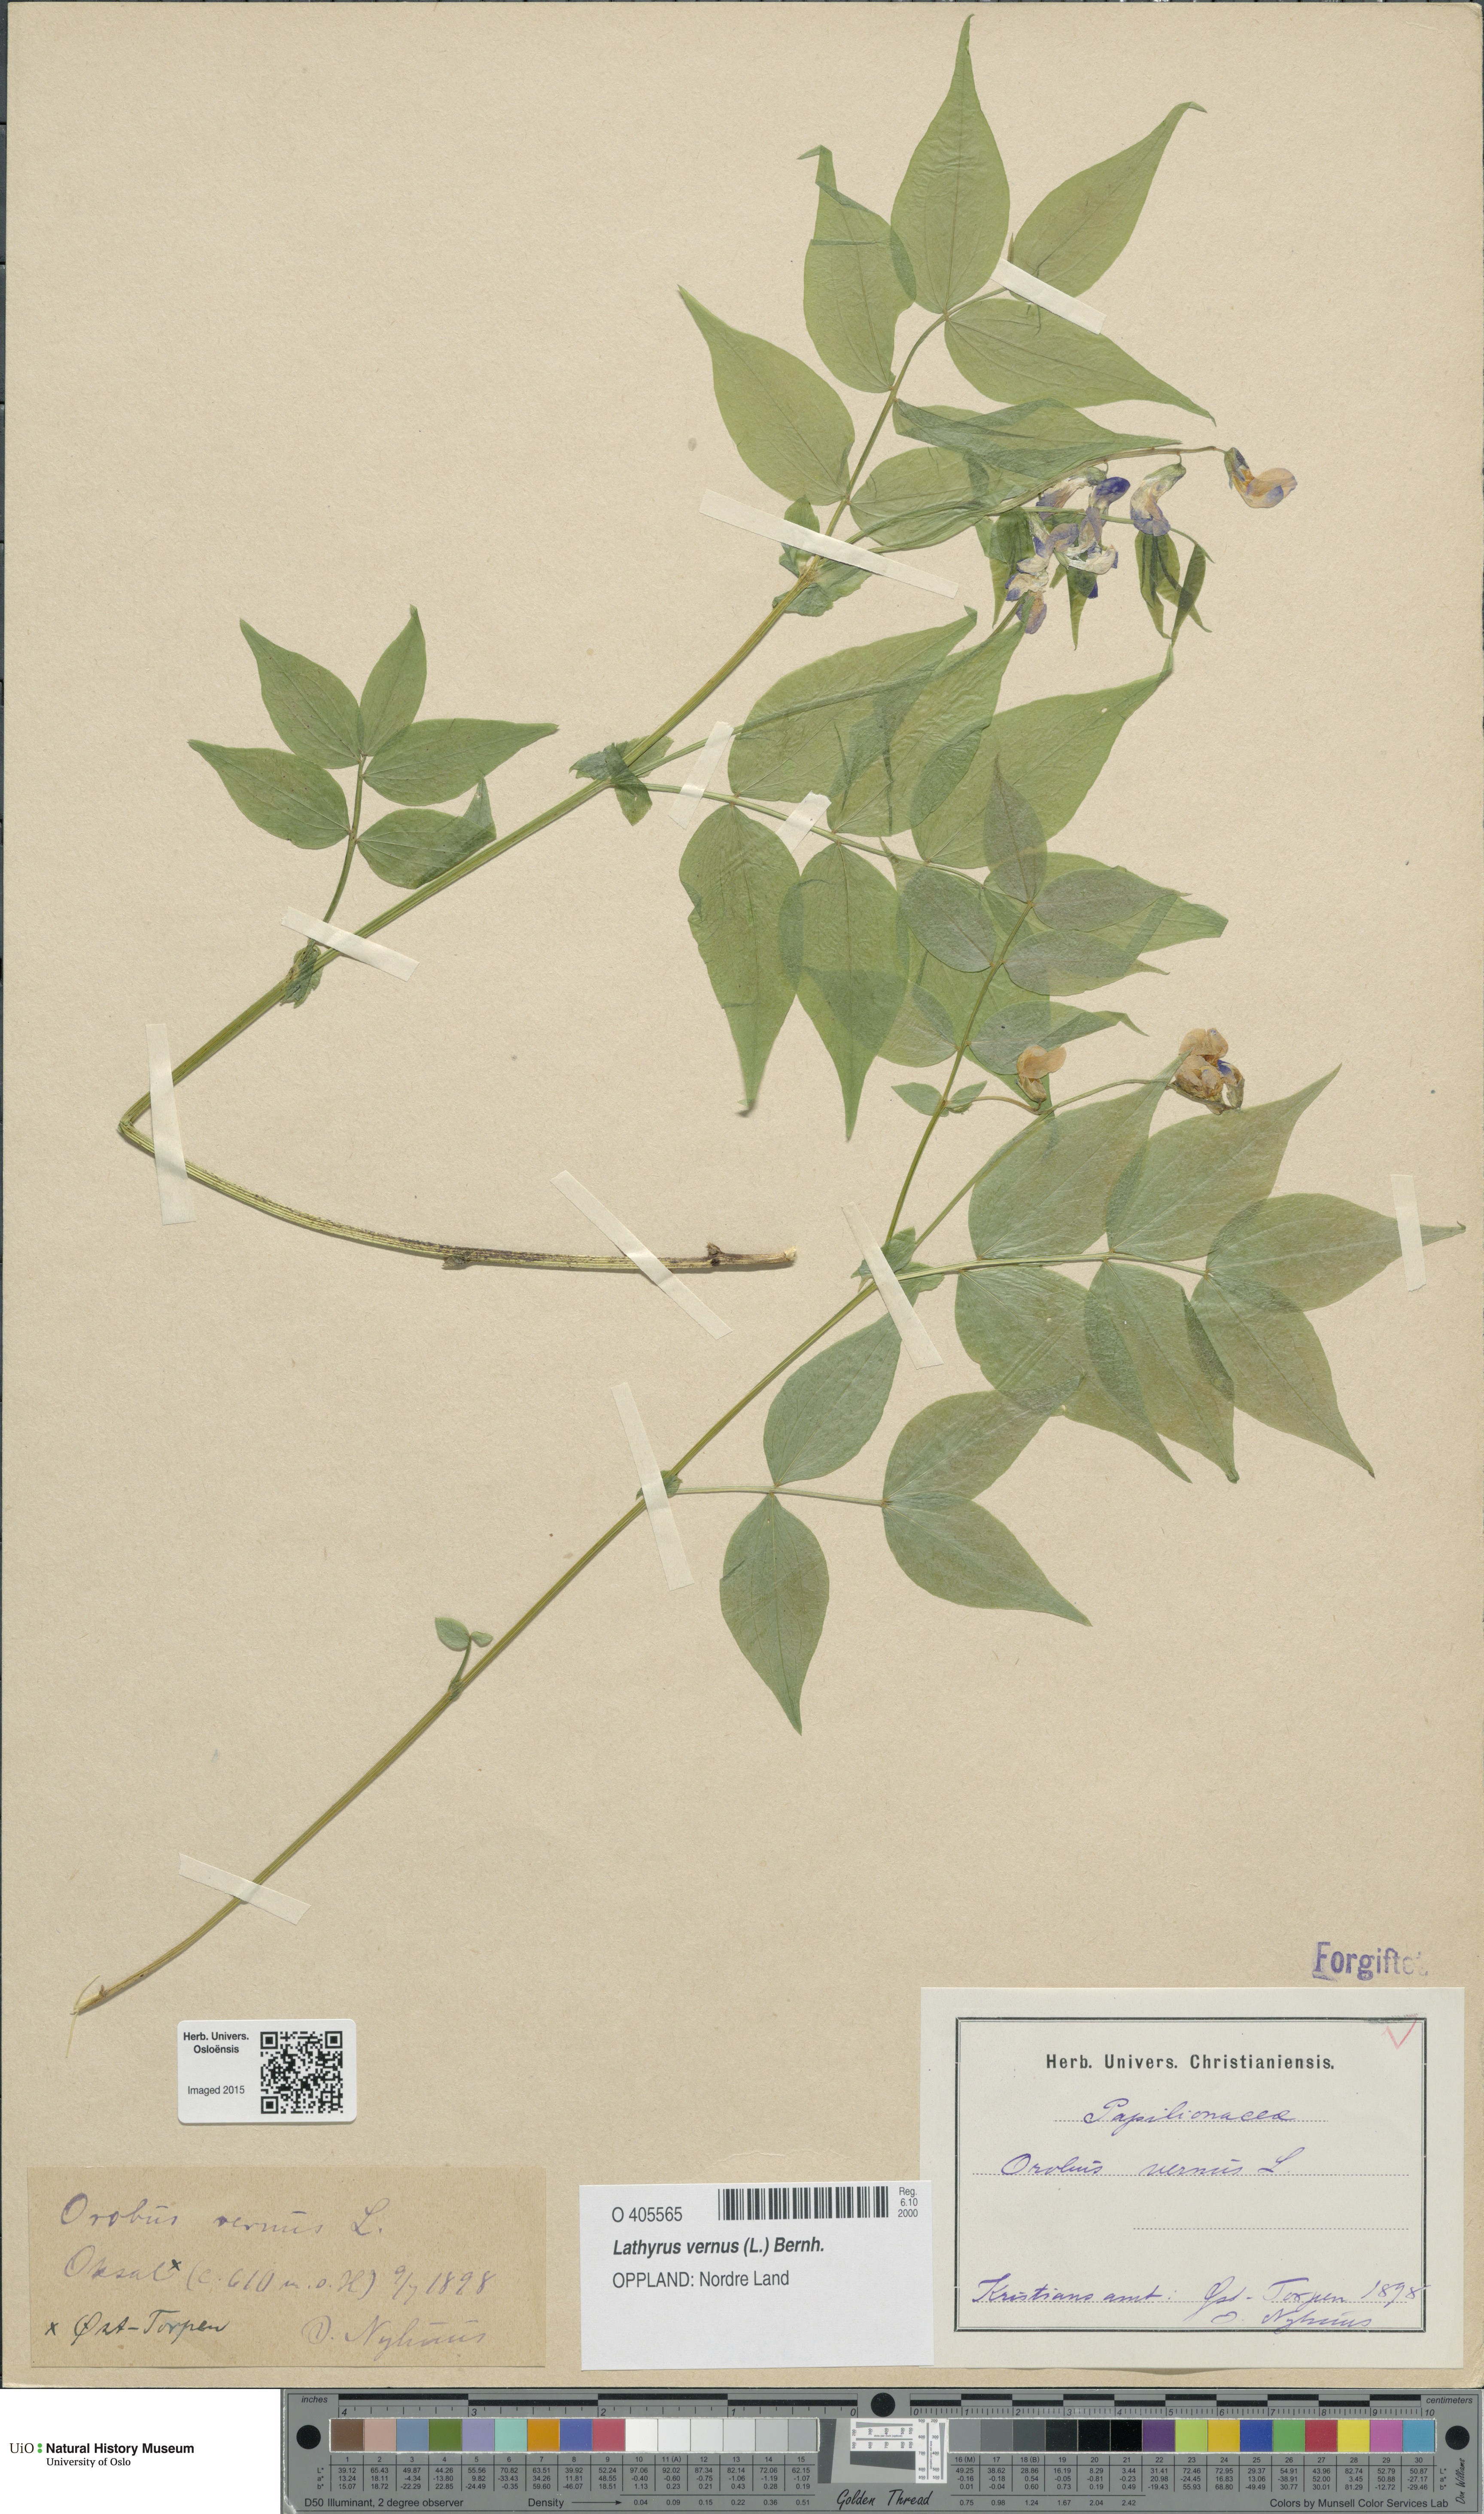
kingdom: Plantae
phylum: Tracheophyta
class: Magnoliopsida
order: Fabales
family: Fabaceae
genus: Lathyrus
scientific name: Lathyrus vernus
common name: Spring pea
